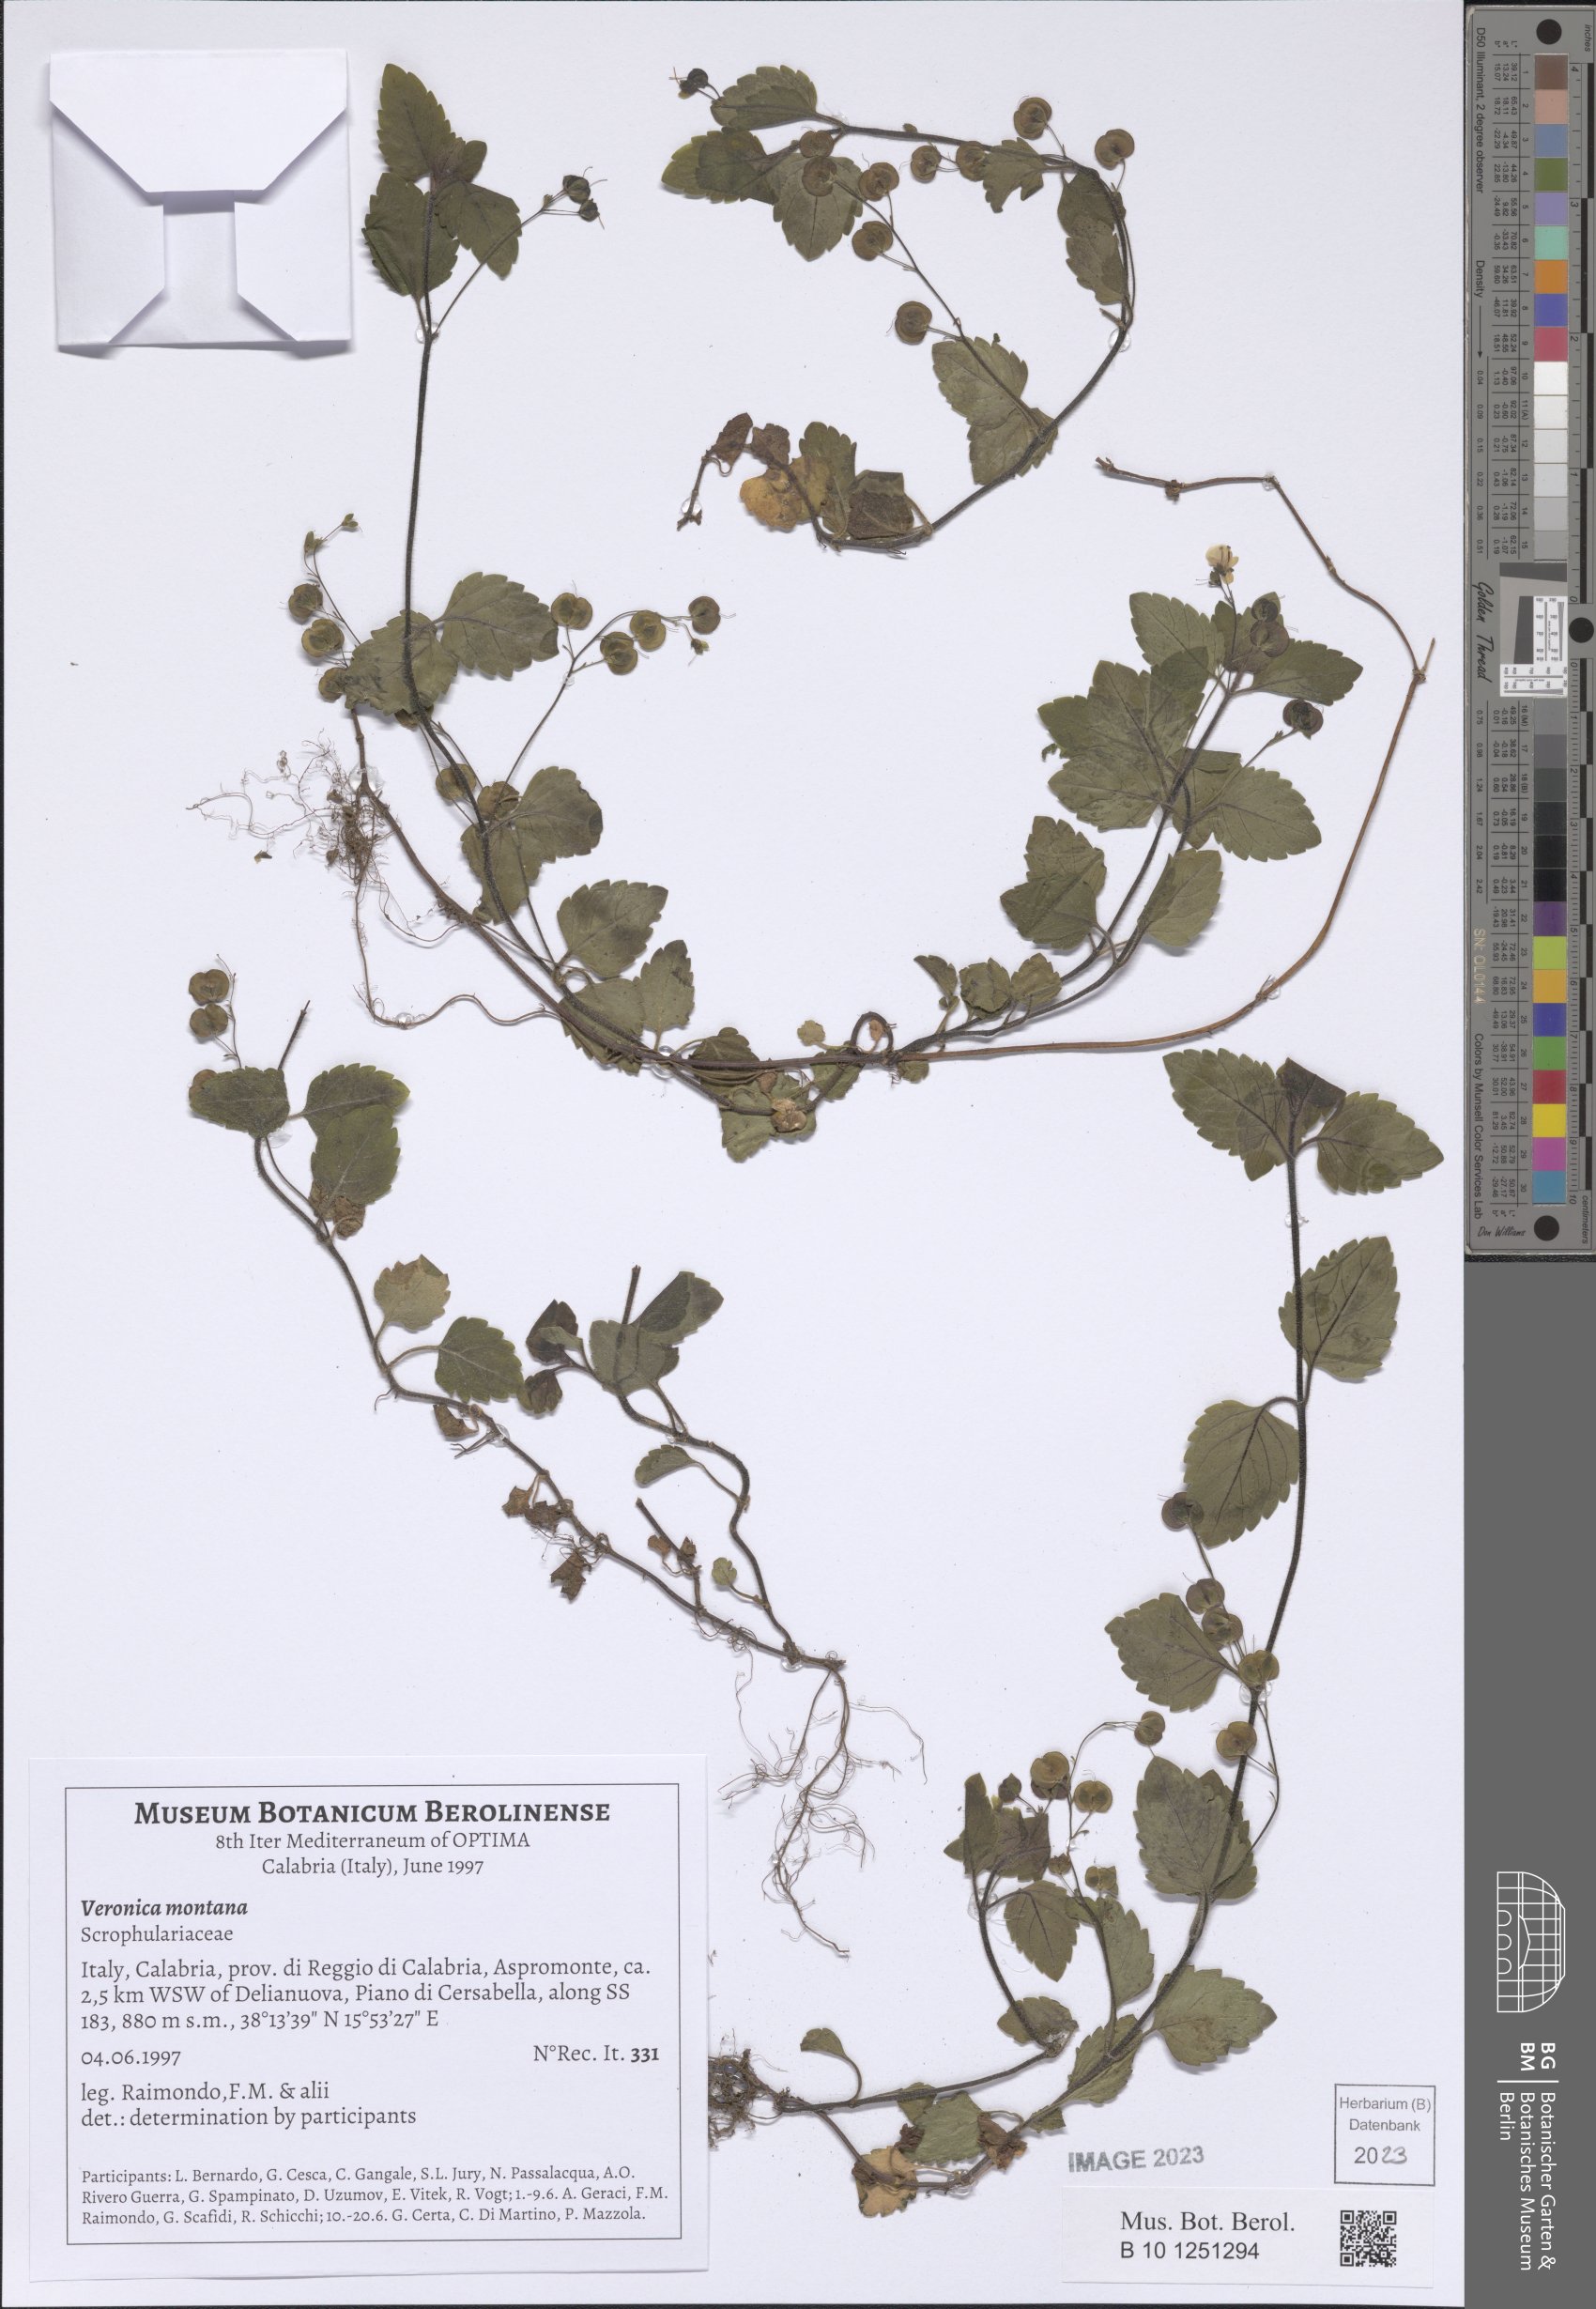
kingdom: Plantae
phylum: Tracheophyta
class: Magnoliopsida
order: Lamiales
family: Plantaginaceae
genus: Veronica
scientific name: Veronica montana
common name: Wood speedwell
